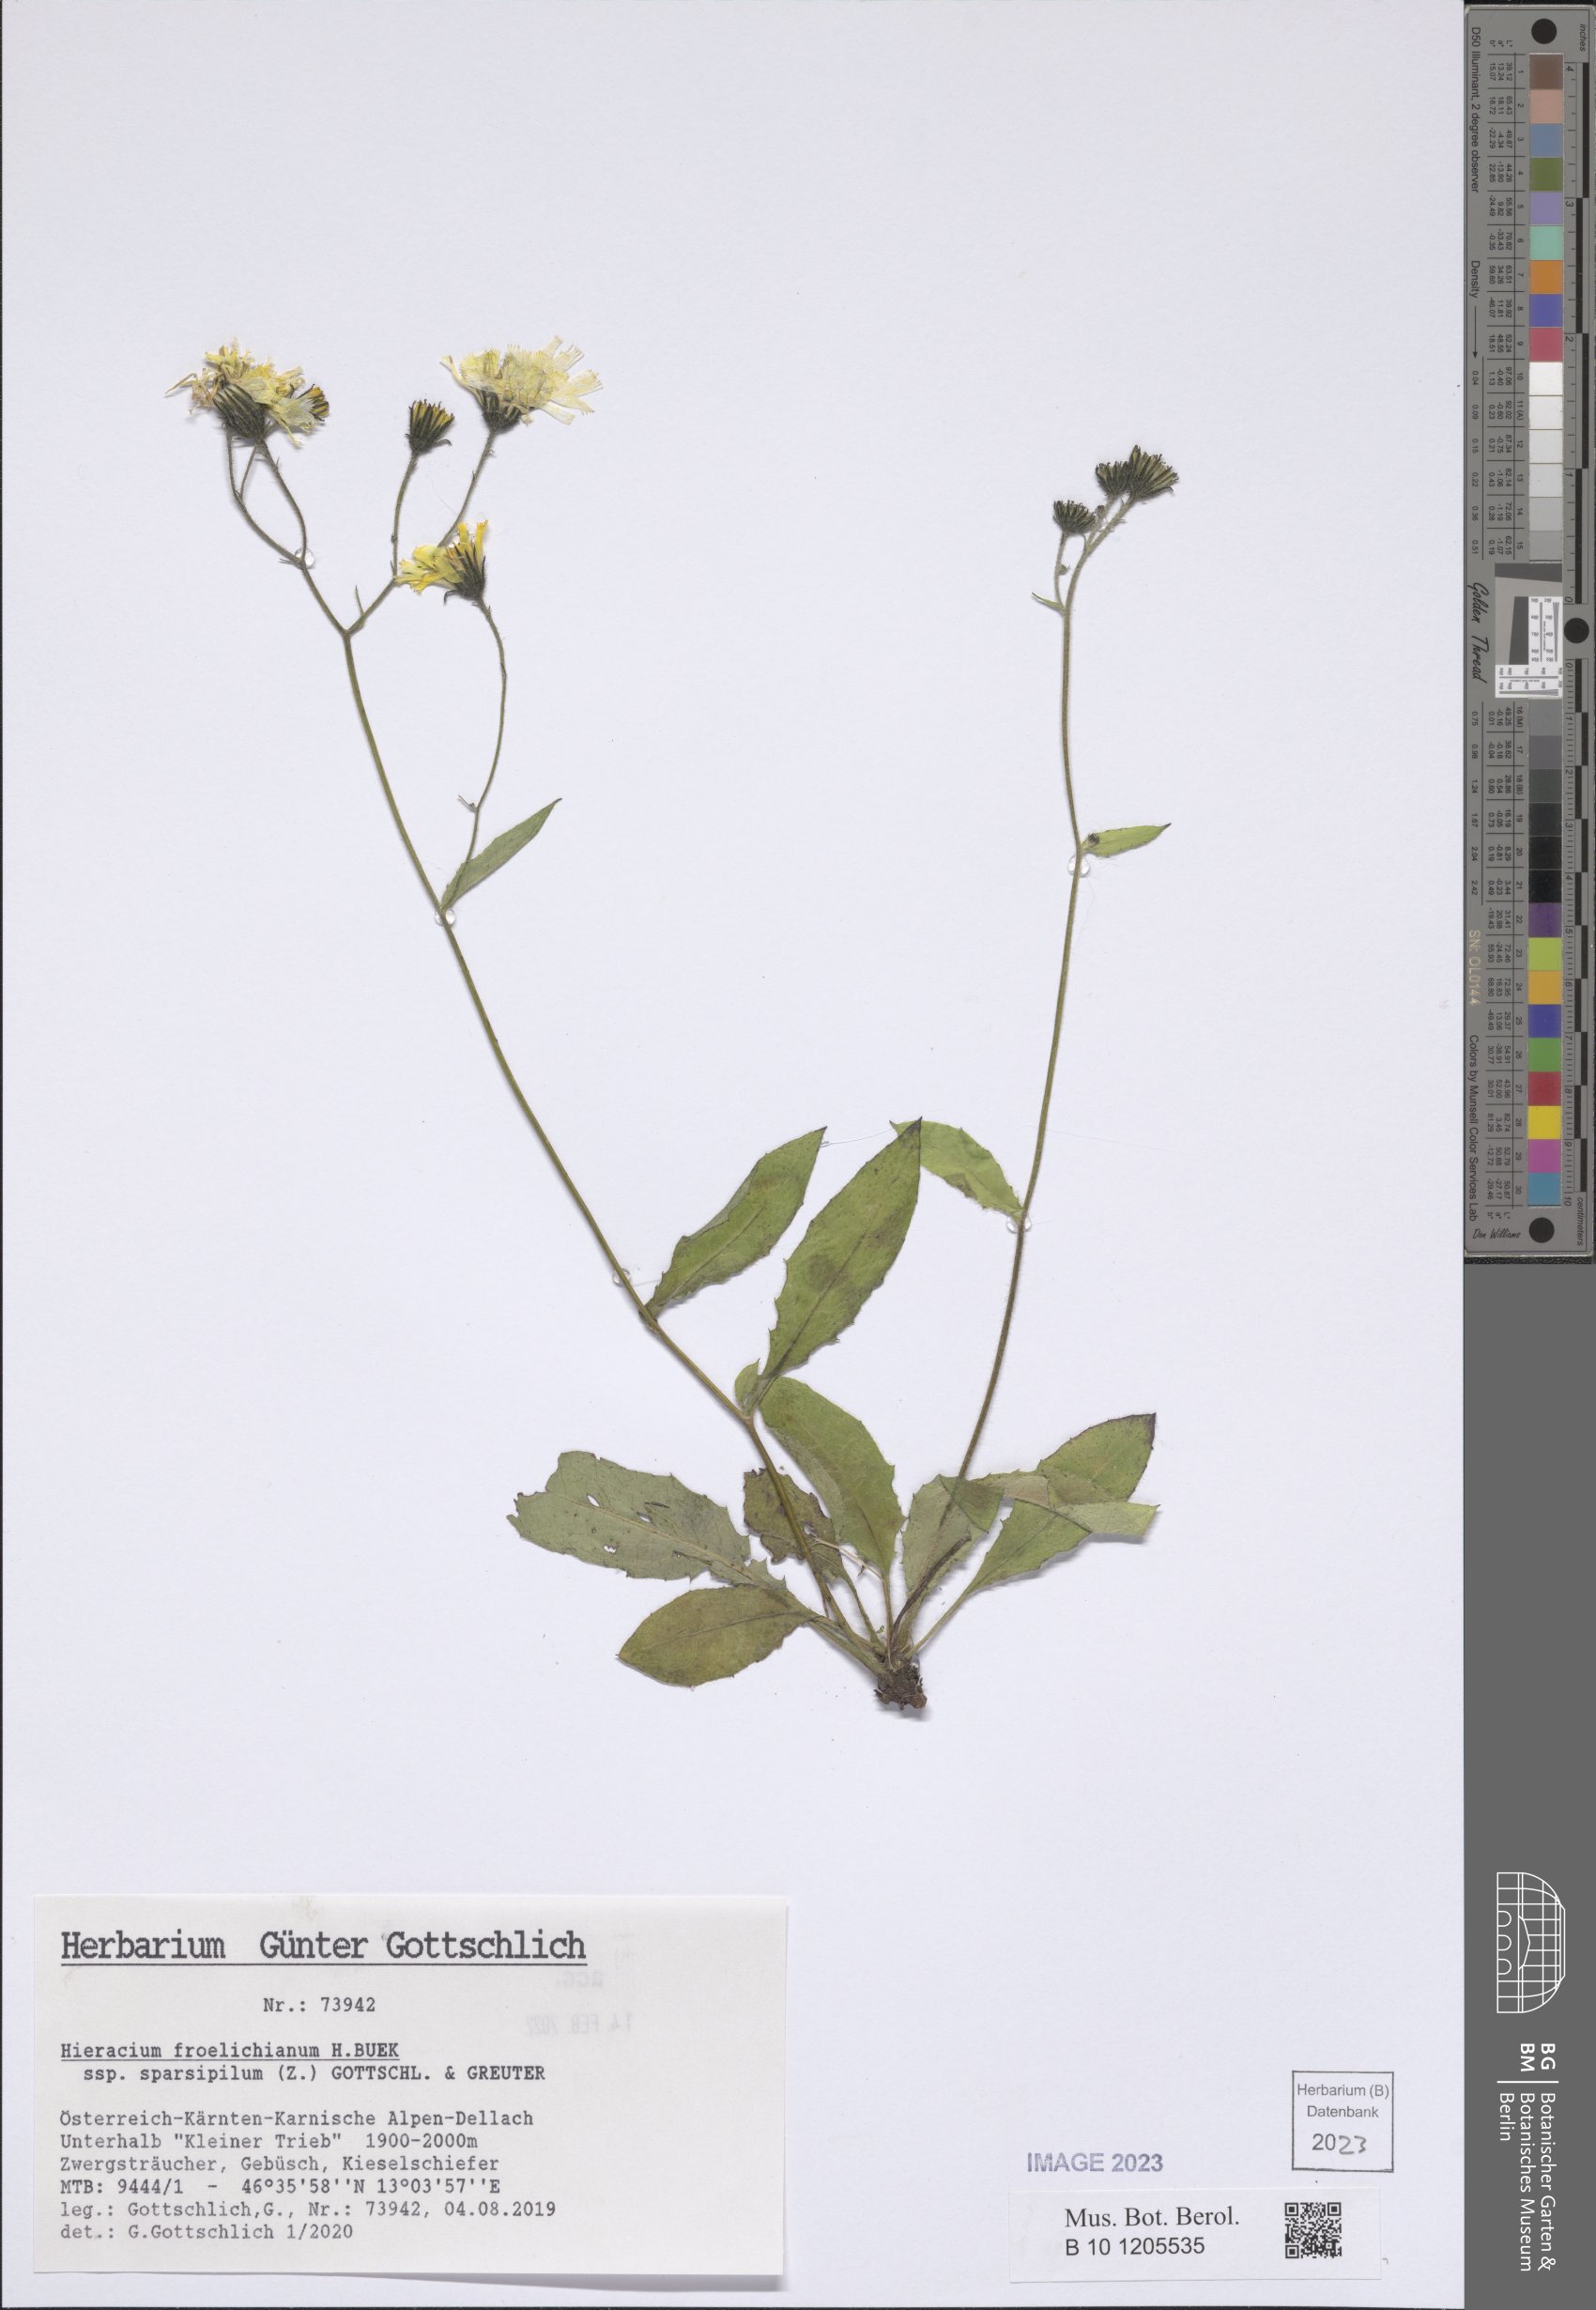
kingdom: Plantae
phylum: Tracheophyta
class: Magnoliopsida
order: Asterales
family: Asteraceae
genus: Hieracium
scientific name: Hieracium froelichianum
